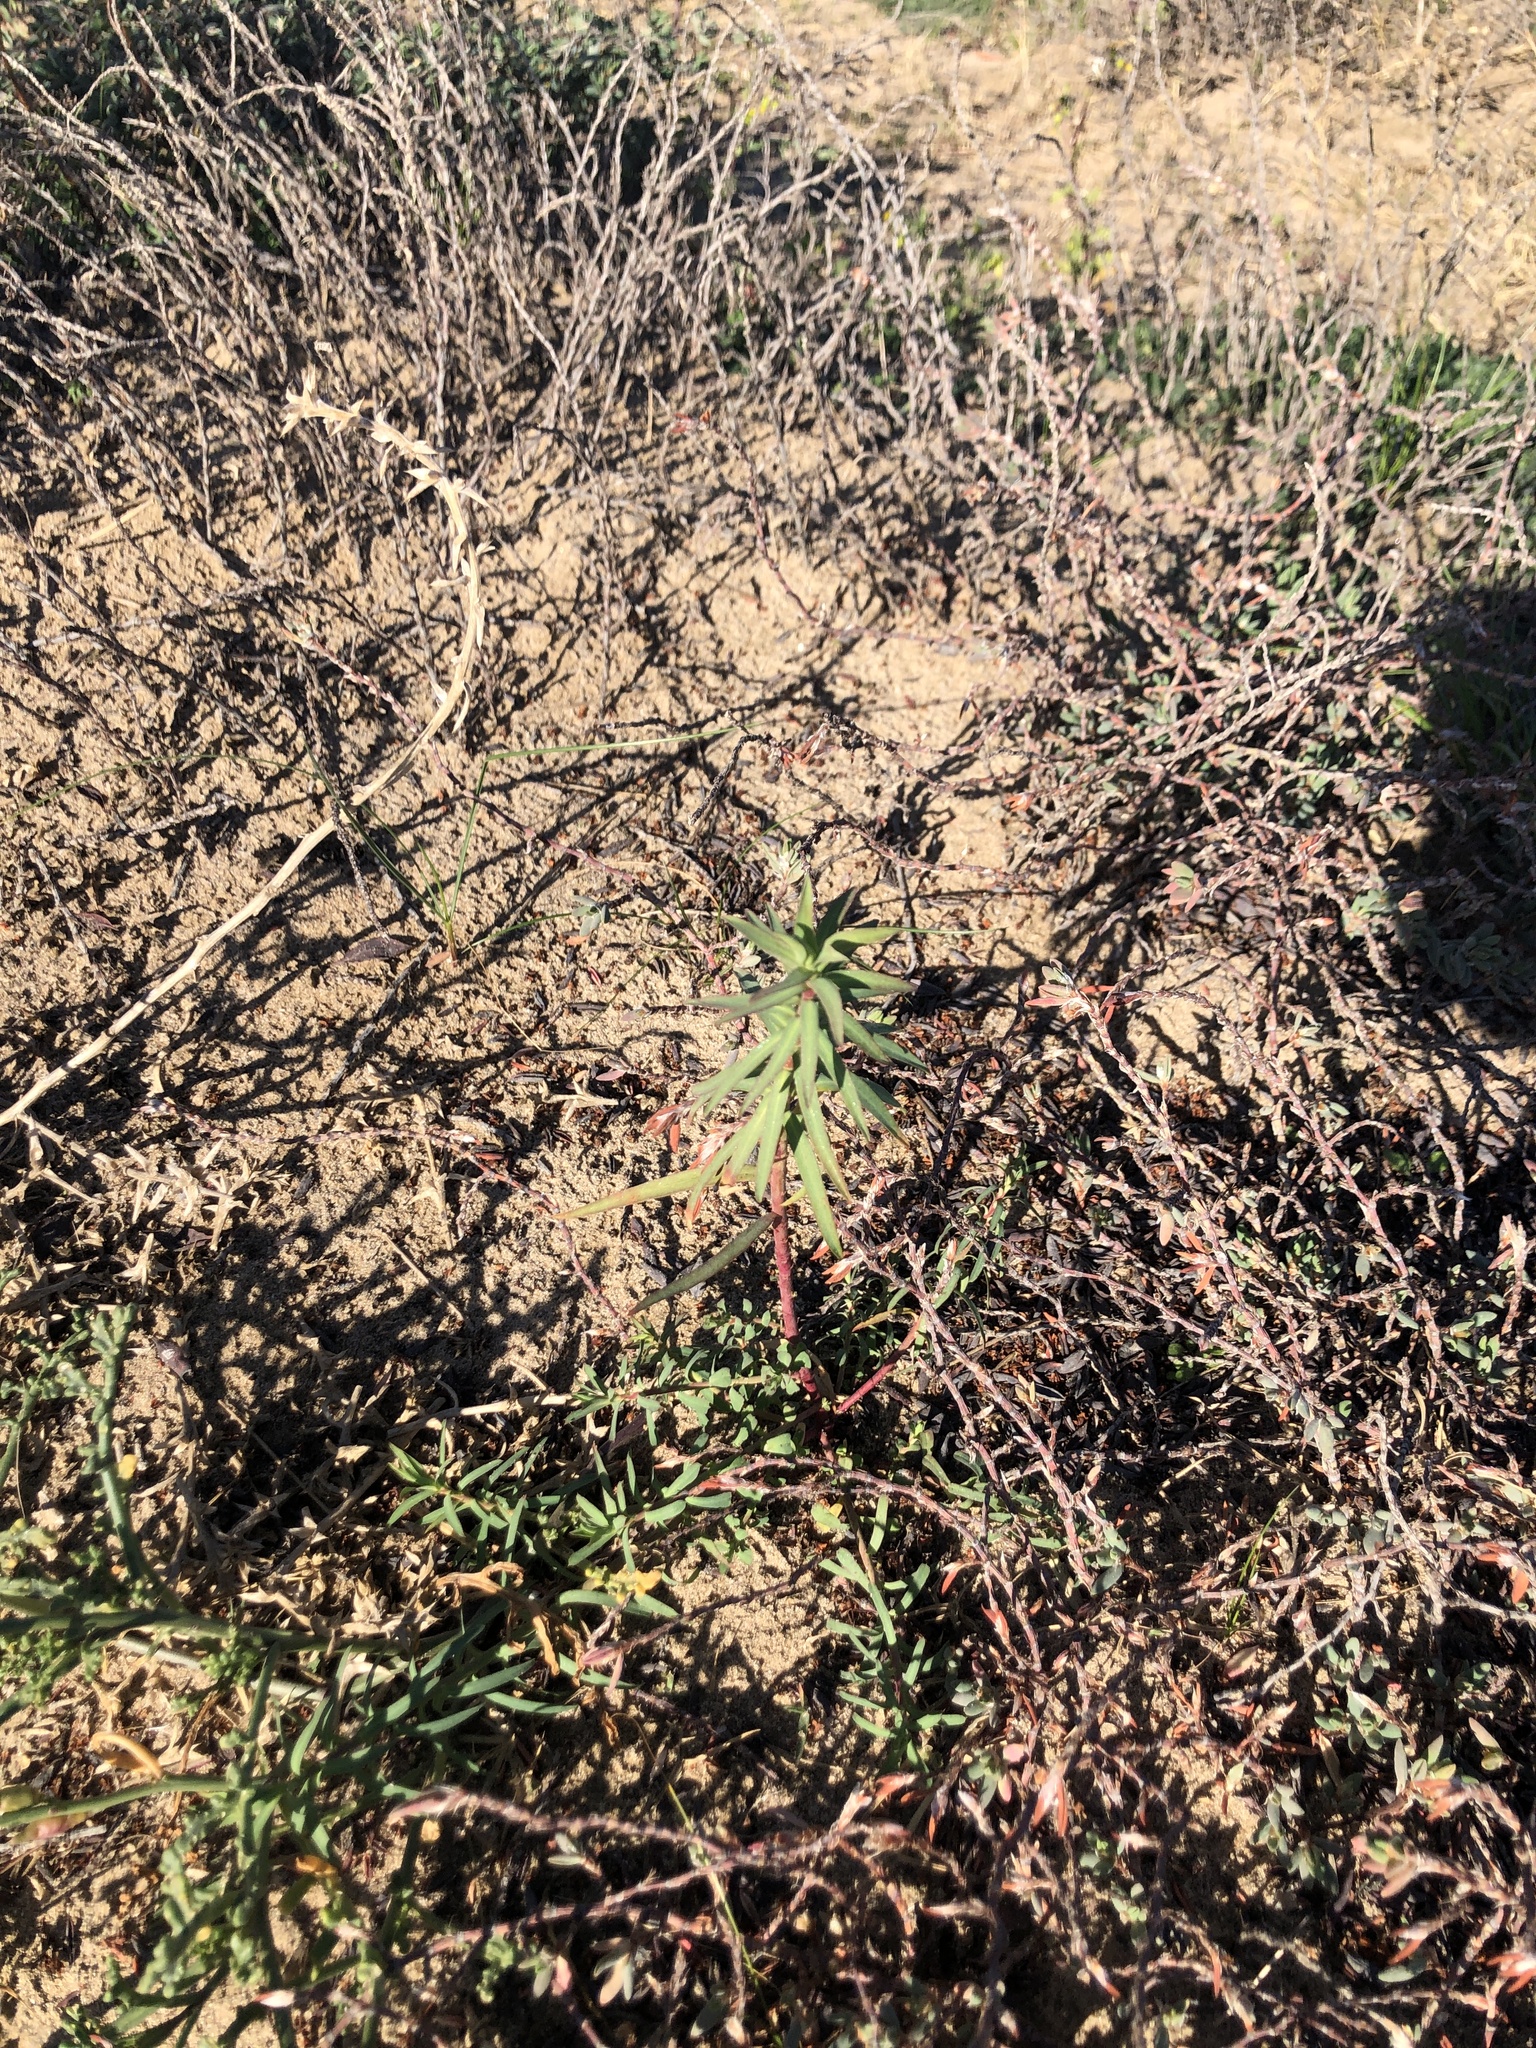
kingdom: Plantae
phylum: Tracheophyta
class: Magnoliopsida
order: Malpighiales
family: Euphorbiaceae
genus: Euphorbia
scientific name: Euphorbia terracina
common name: Geraldton carnation weed
